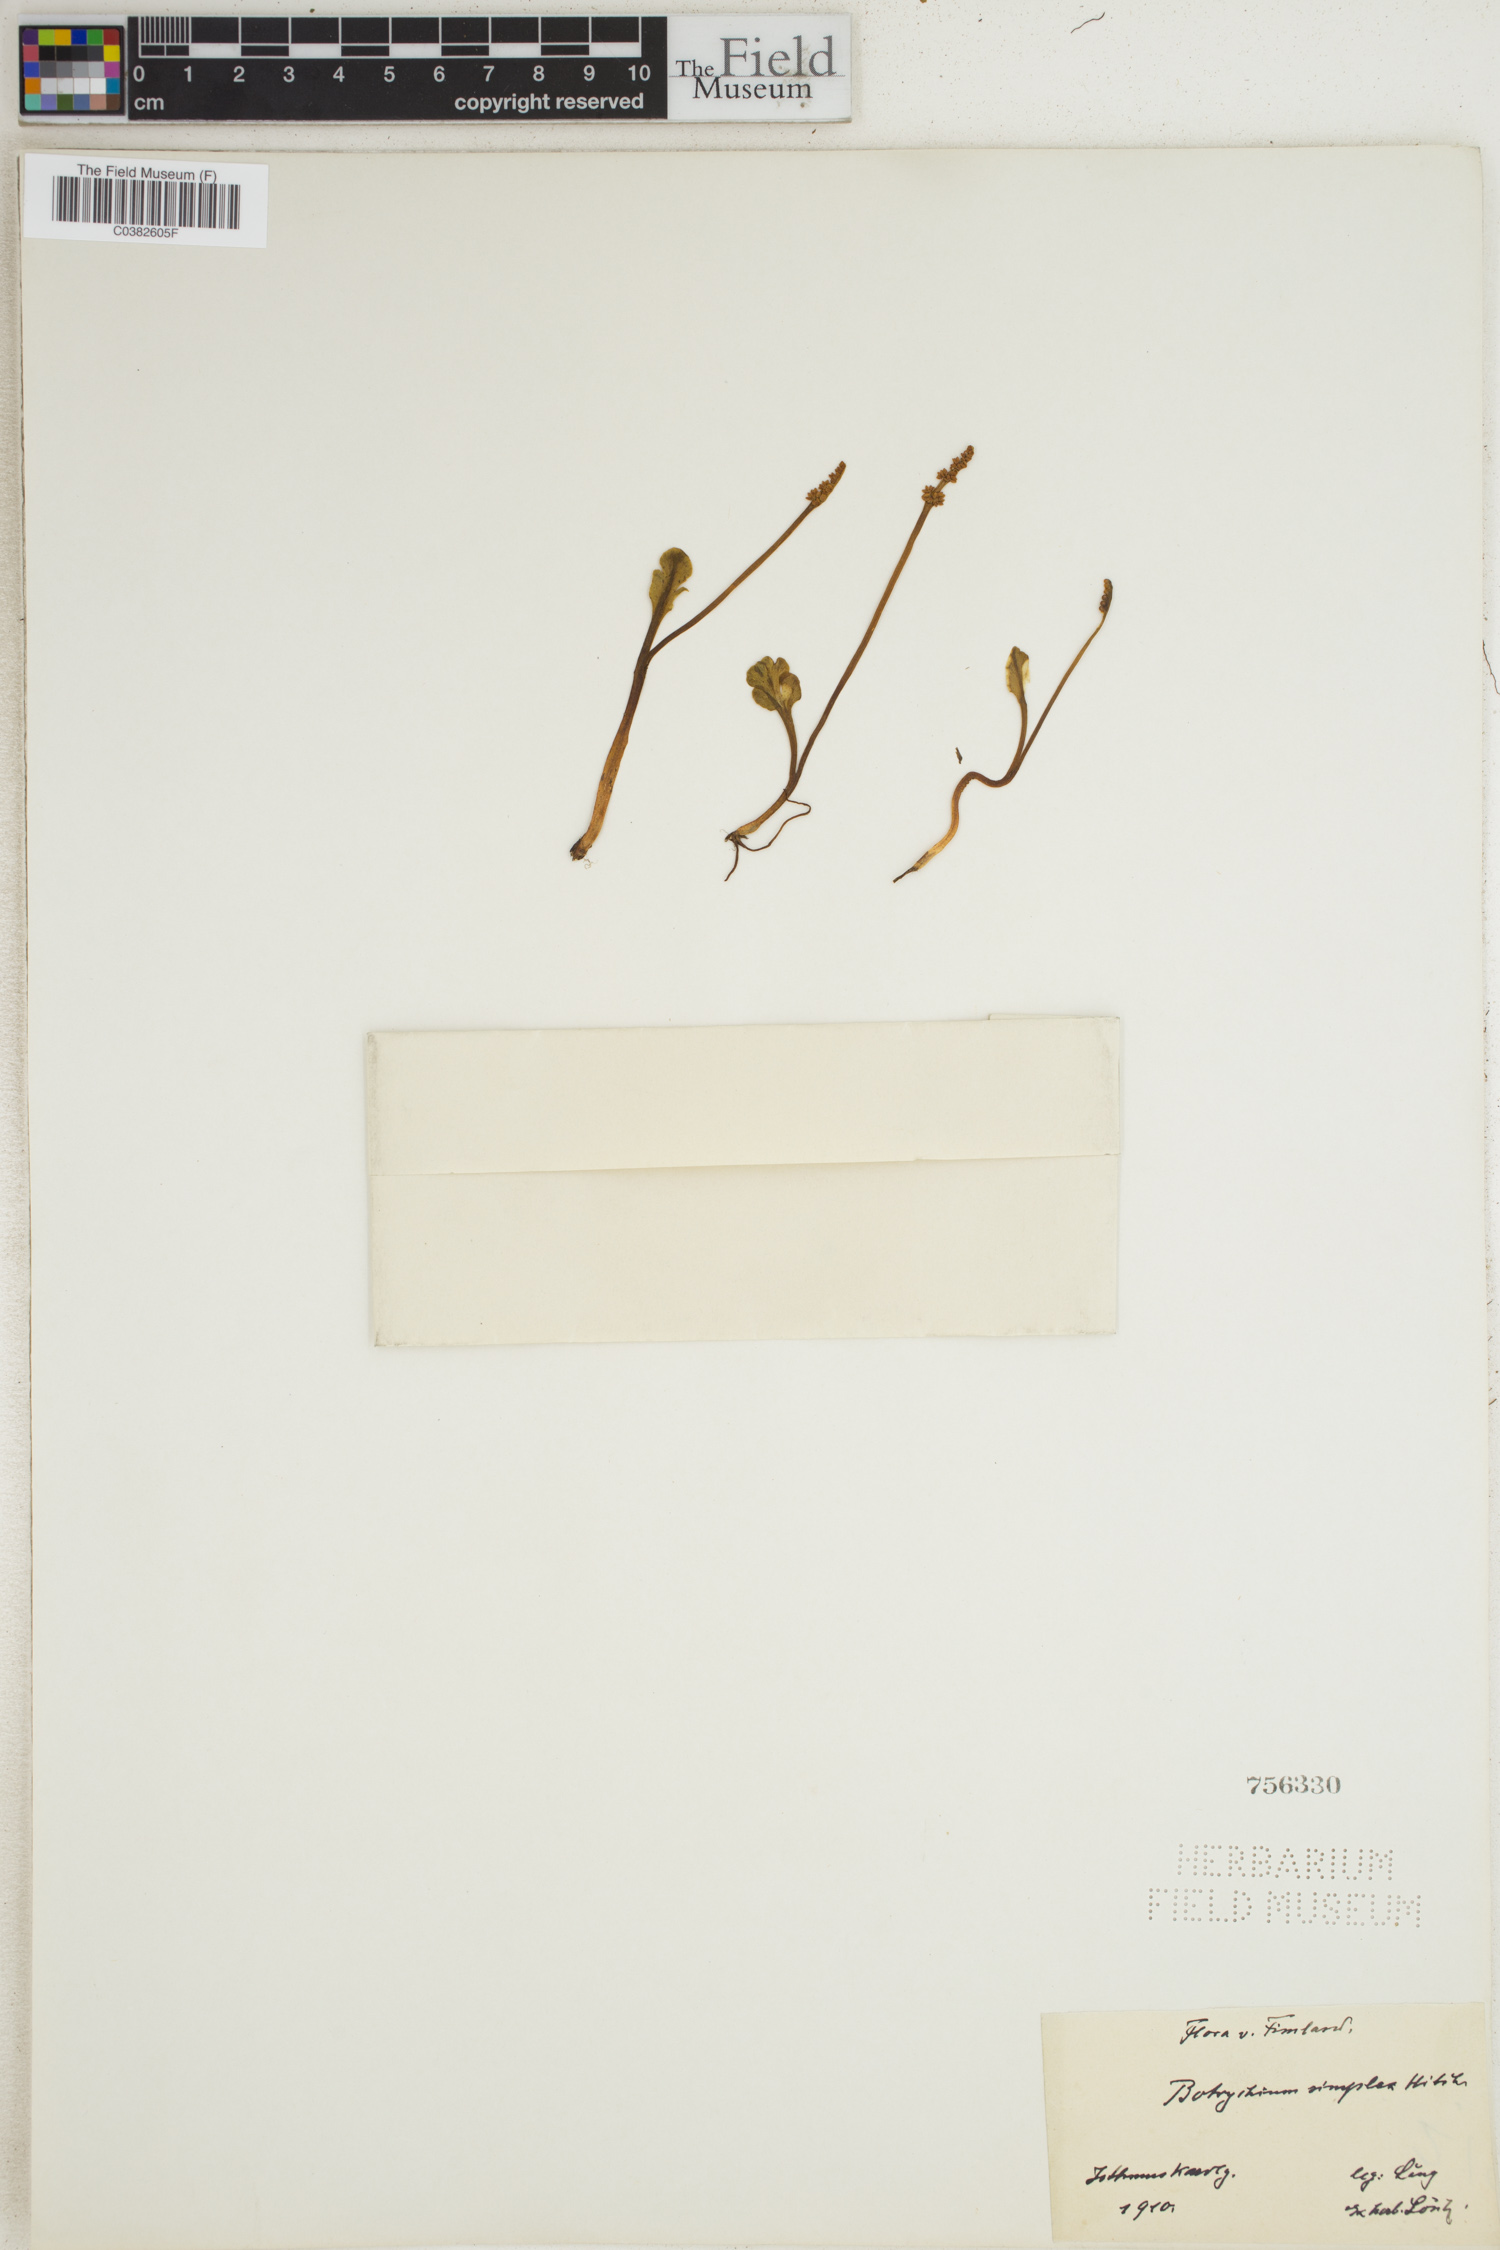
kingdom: Plantae
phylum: Tracheophyta
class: Polypodiopsida
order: Ophioglossales
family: Ophioglossaceae
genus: Botrychium
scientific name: Botrychium simplex
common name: Least moonwort
